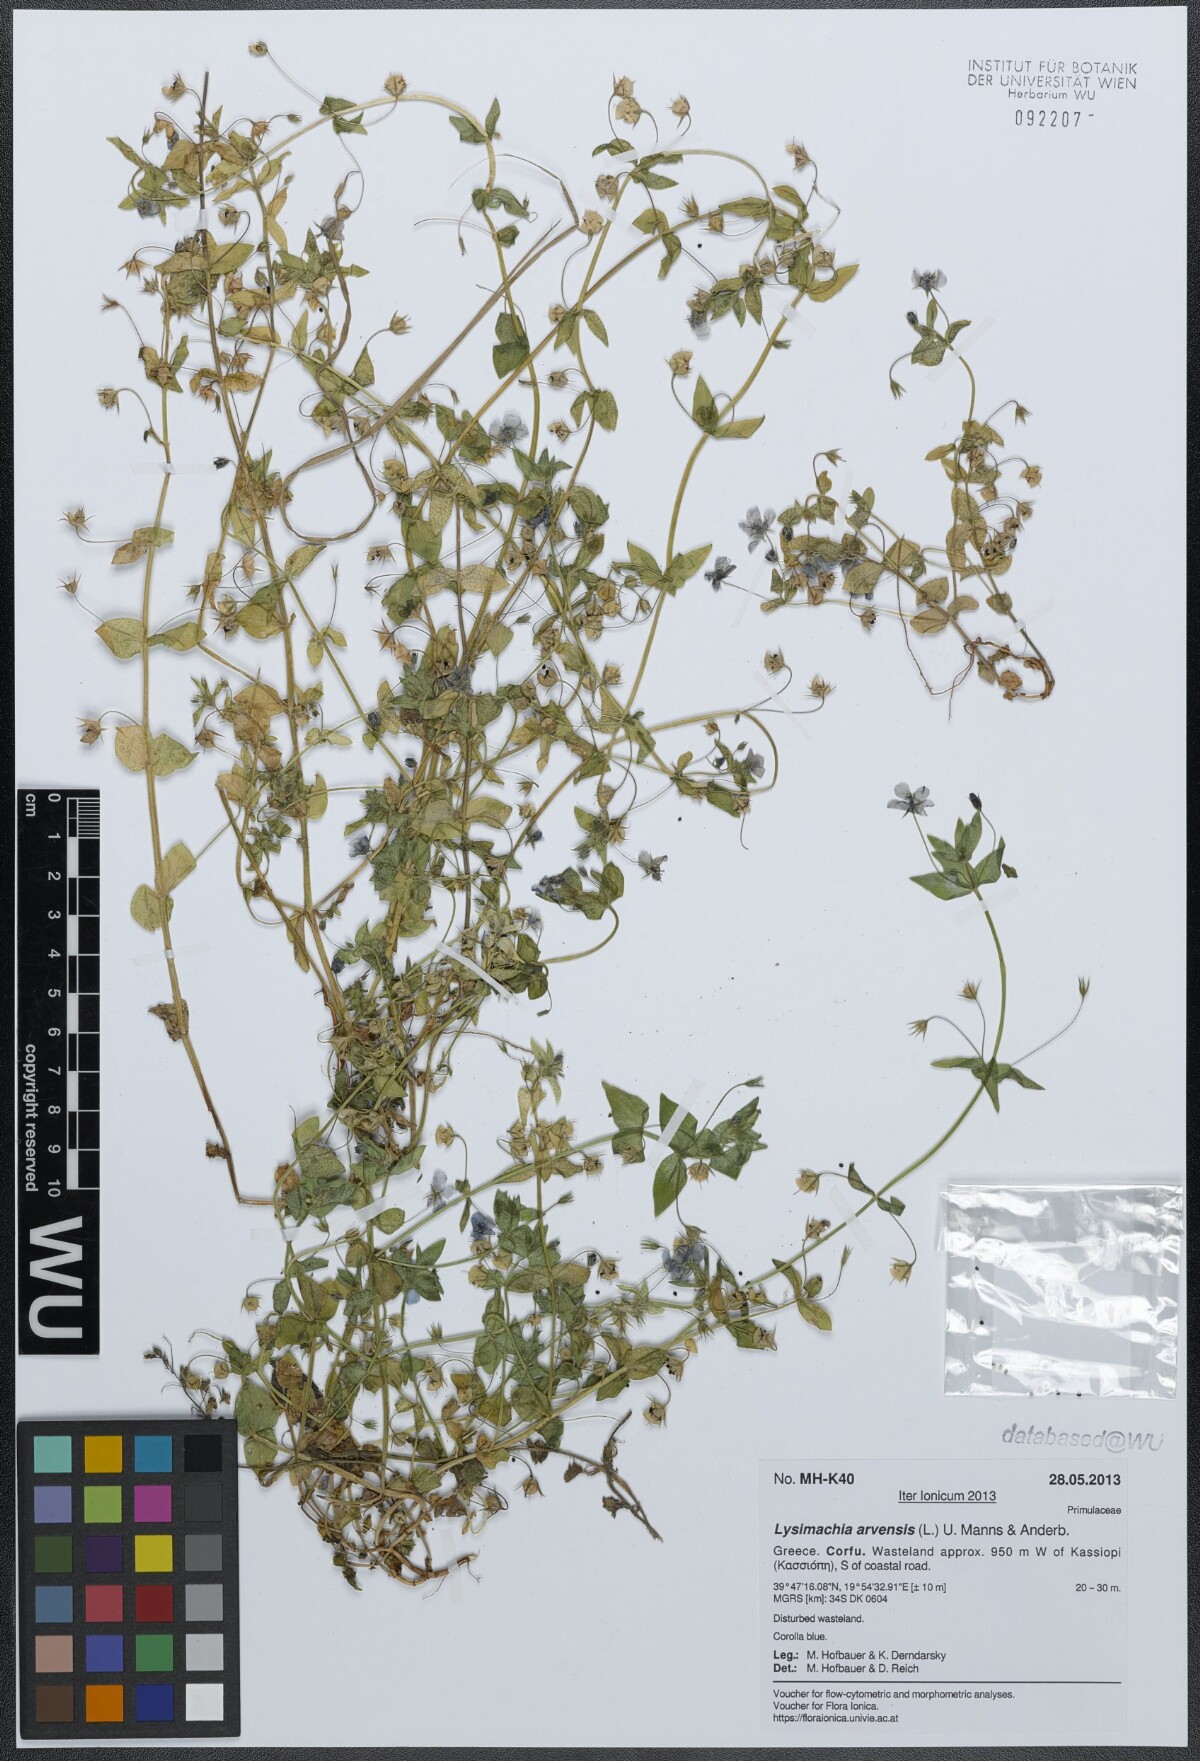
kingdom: Plantae
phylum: Tracheophyta
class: Magnoliopsida
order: Ericales
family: Primulaceae
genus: Lysimachia
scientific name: Lysimachia arvensis
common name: Scarlet pimpernel
